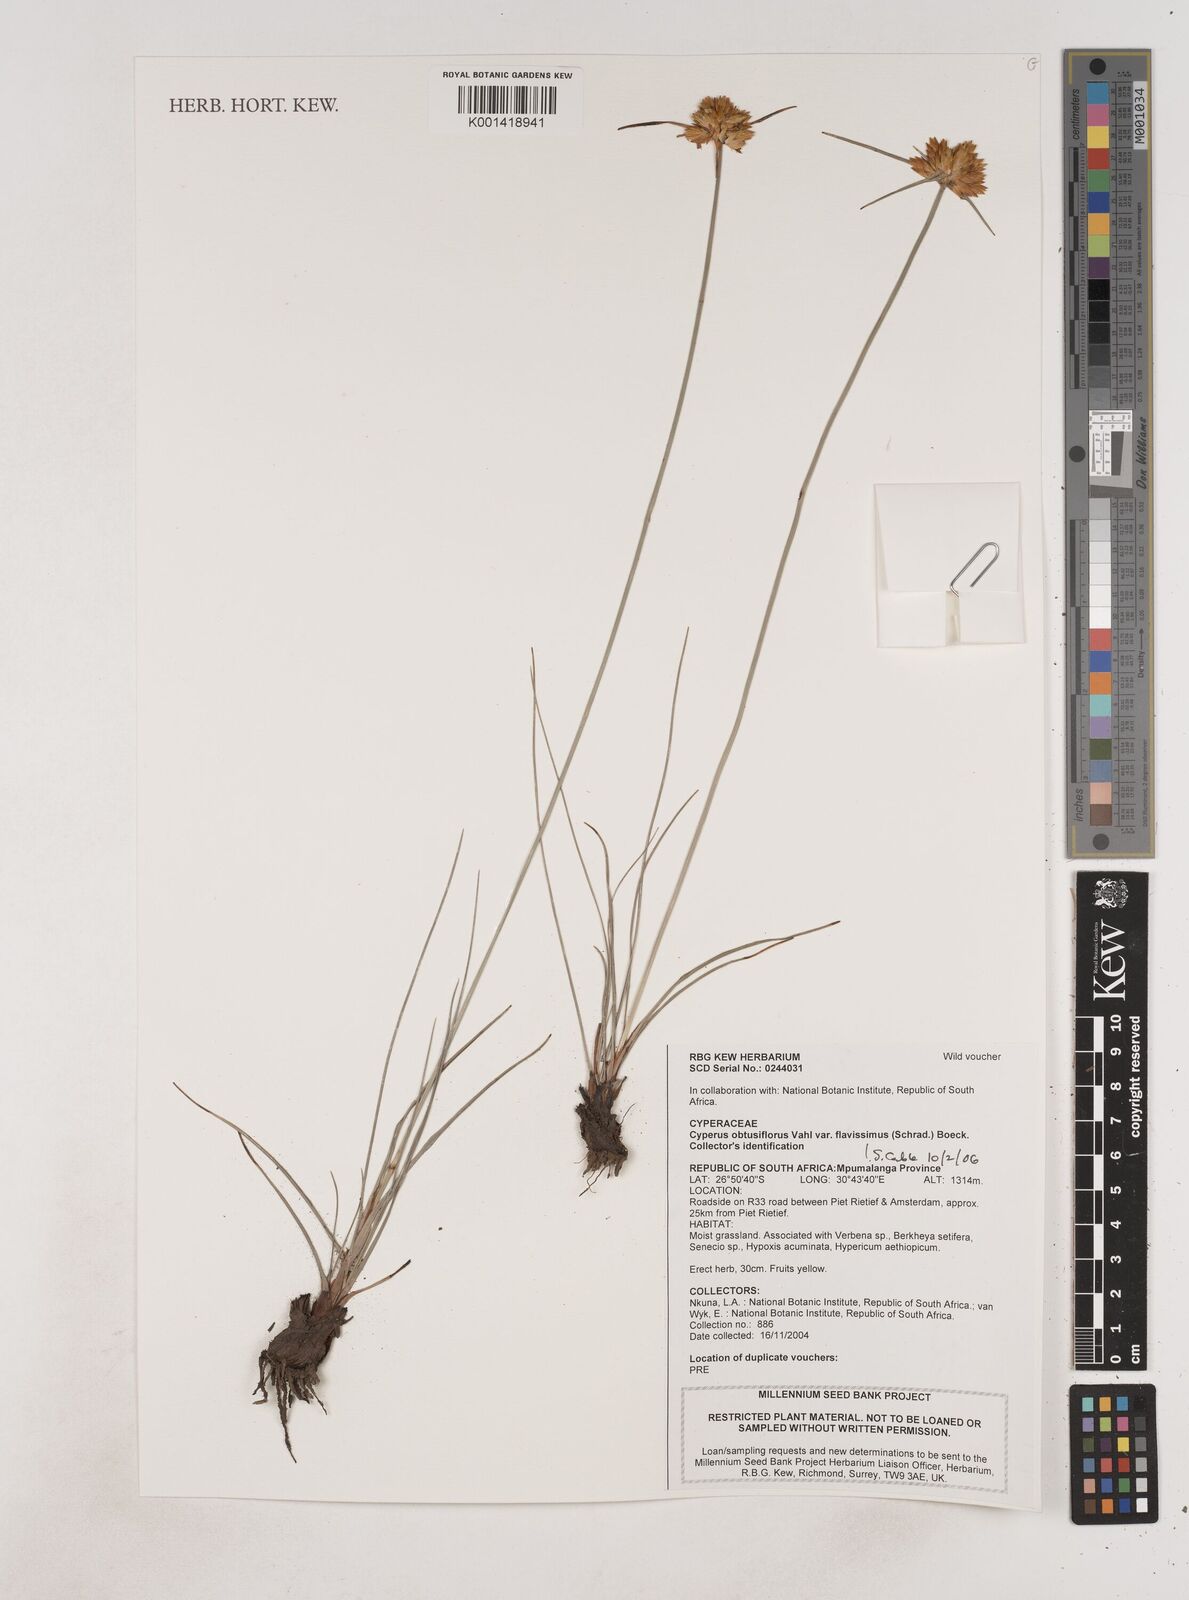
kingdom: Plantae
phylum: Tracheophyta
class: Liliopsida
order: Poales
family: Cyperaceae
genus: Cyperus
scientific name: Cyperus sphaerocephalus
